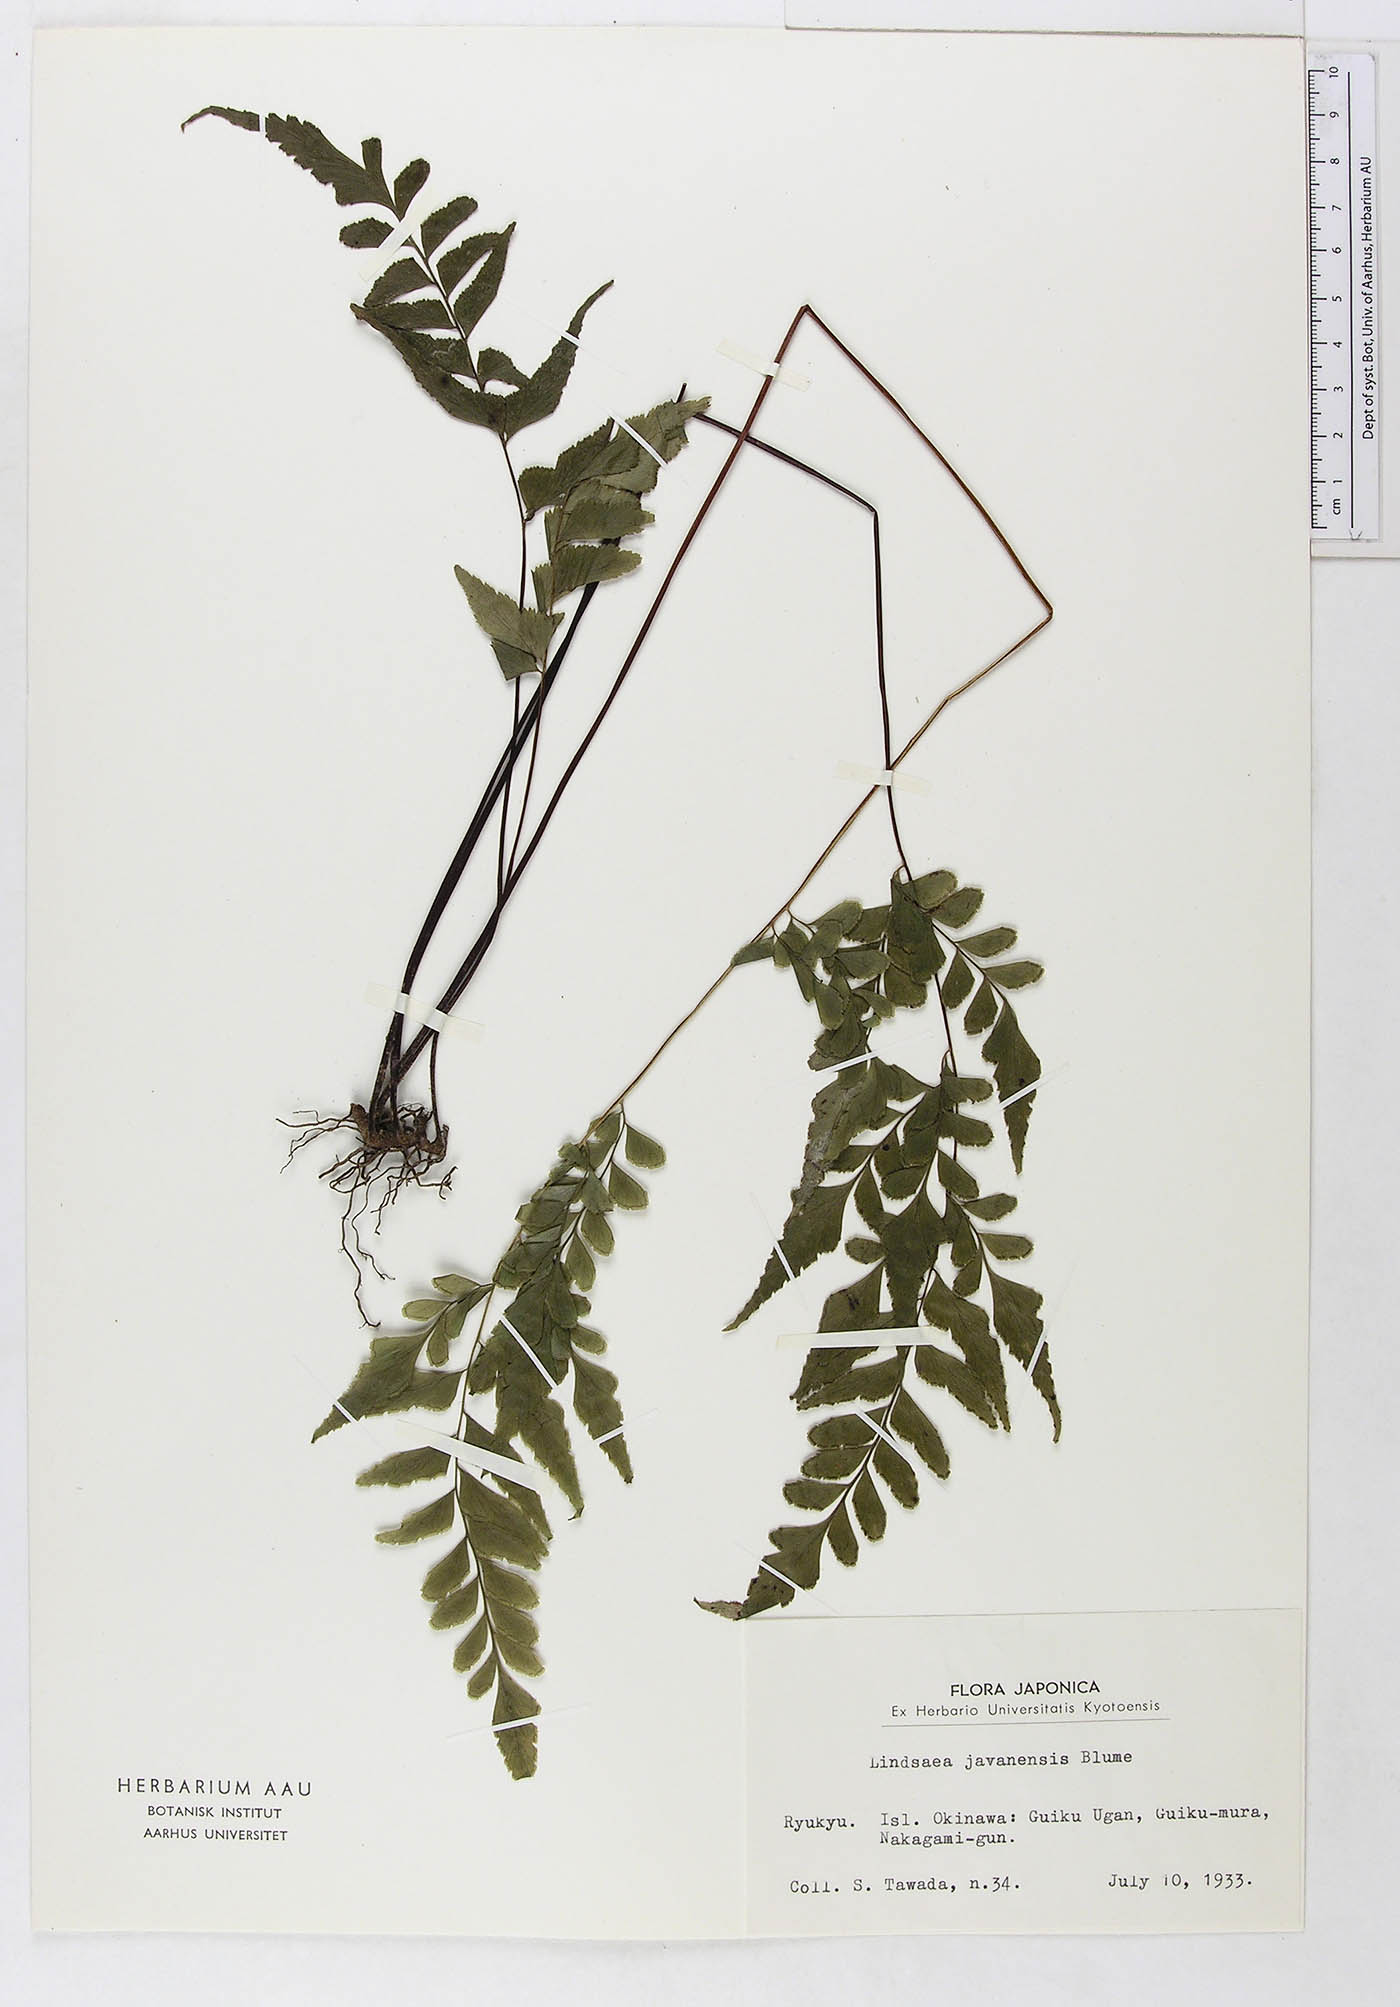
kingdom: Plantae
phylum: Tracheophyta
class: Polypodiopsida
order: Polypodiales
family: Dennstaedtiaceae
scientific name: Dennstaedtiaceae
